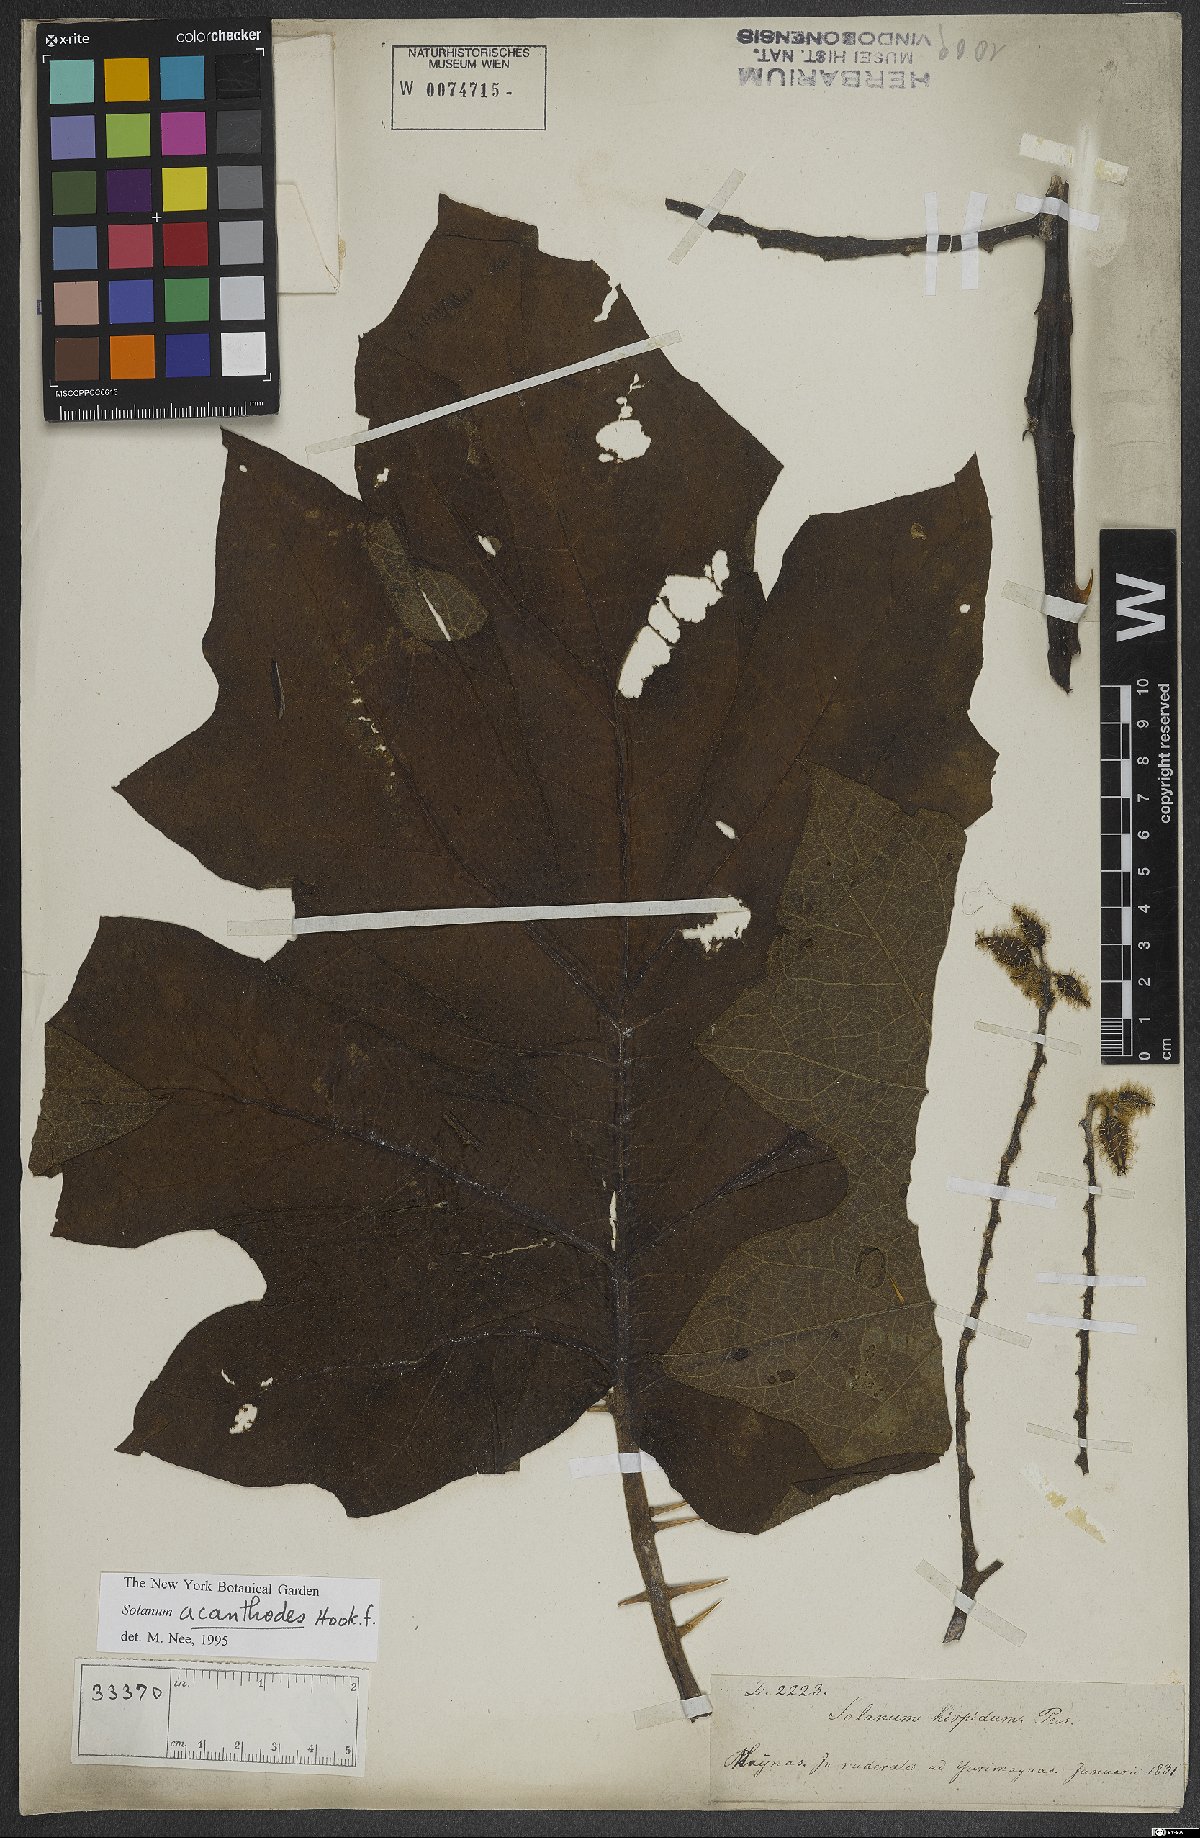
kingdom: Plantae
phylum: Tracheophyta
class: Magnoliopsida
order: Solanales
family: Solanaceae
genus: Solanum
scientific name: Solanum vanheurckii
